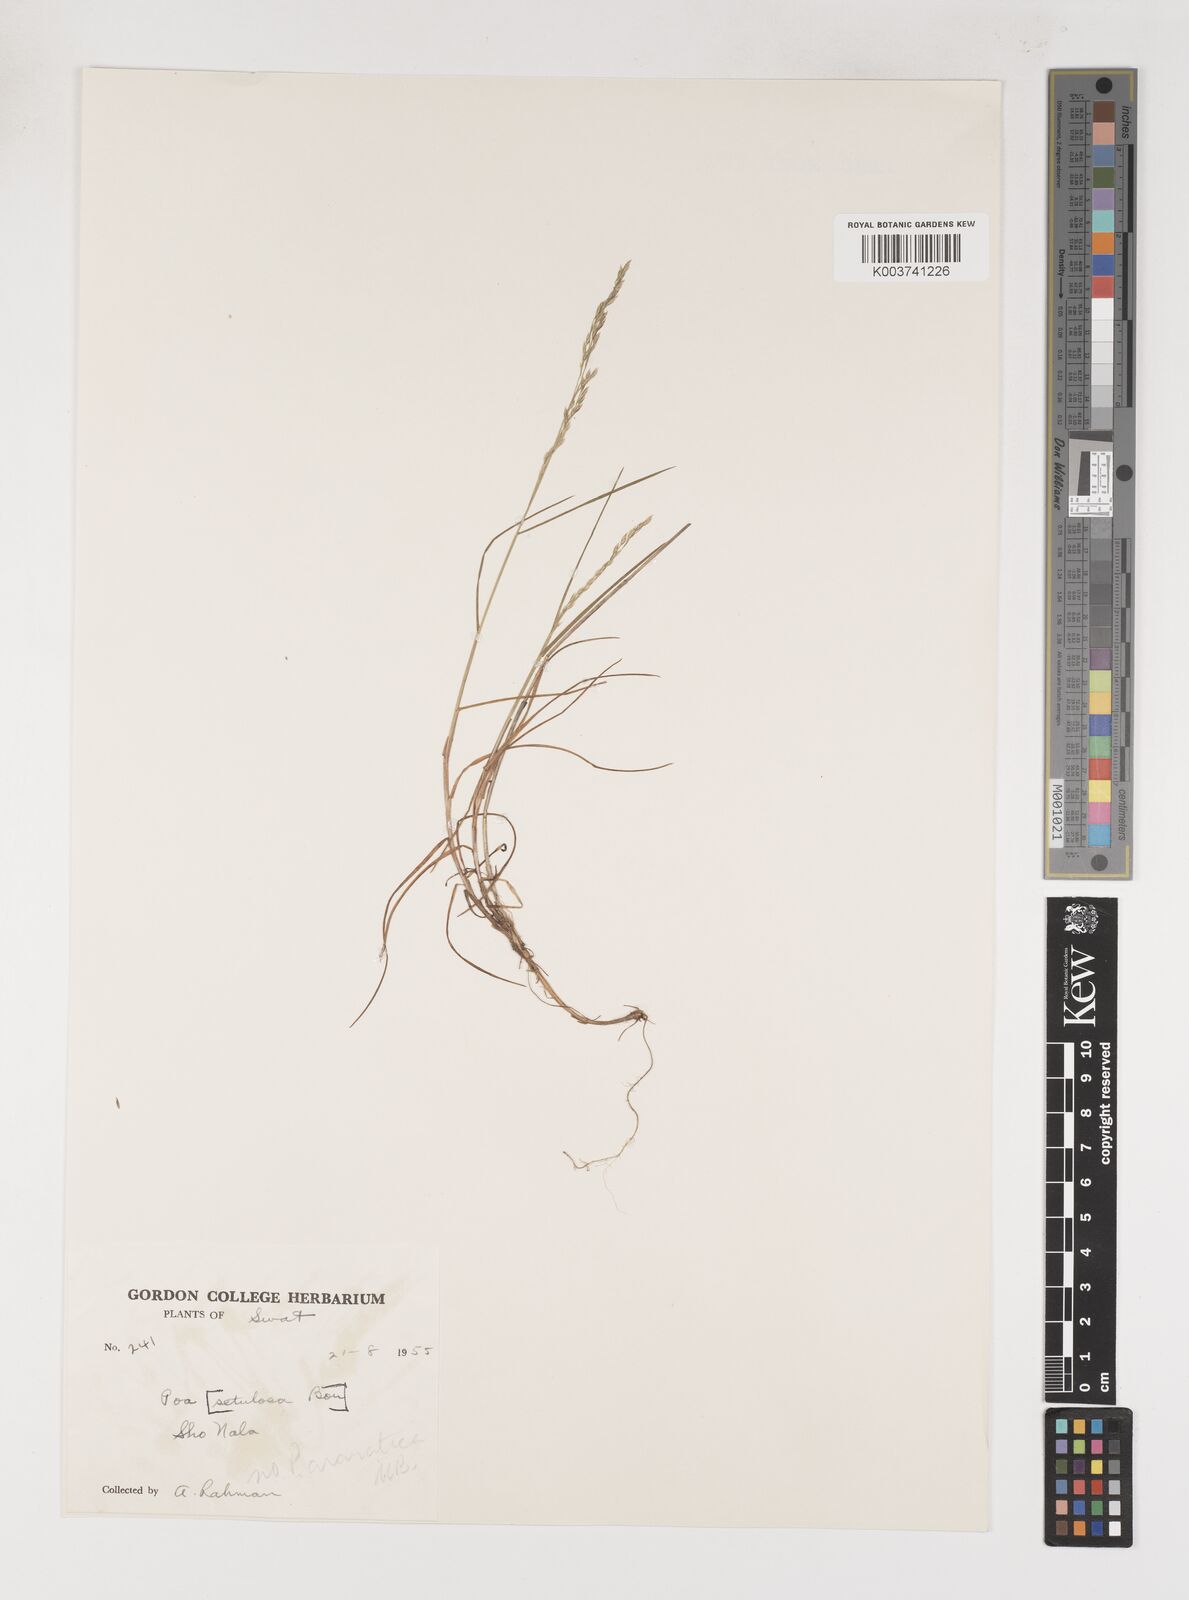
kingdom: Plantae
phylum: Tracheophyta
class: Liliopsida
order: Poales
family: Poaceae
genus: Poa
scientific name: Poa araratica
